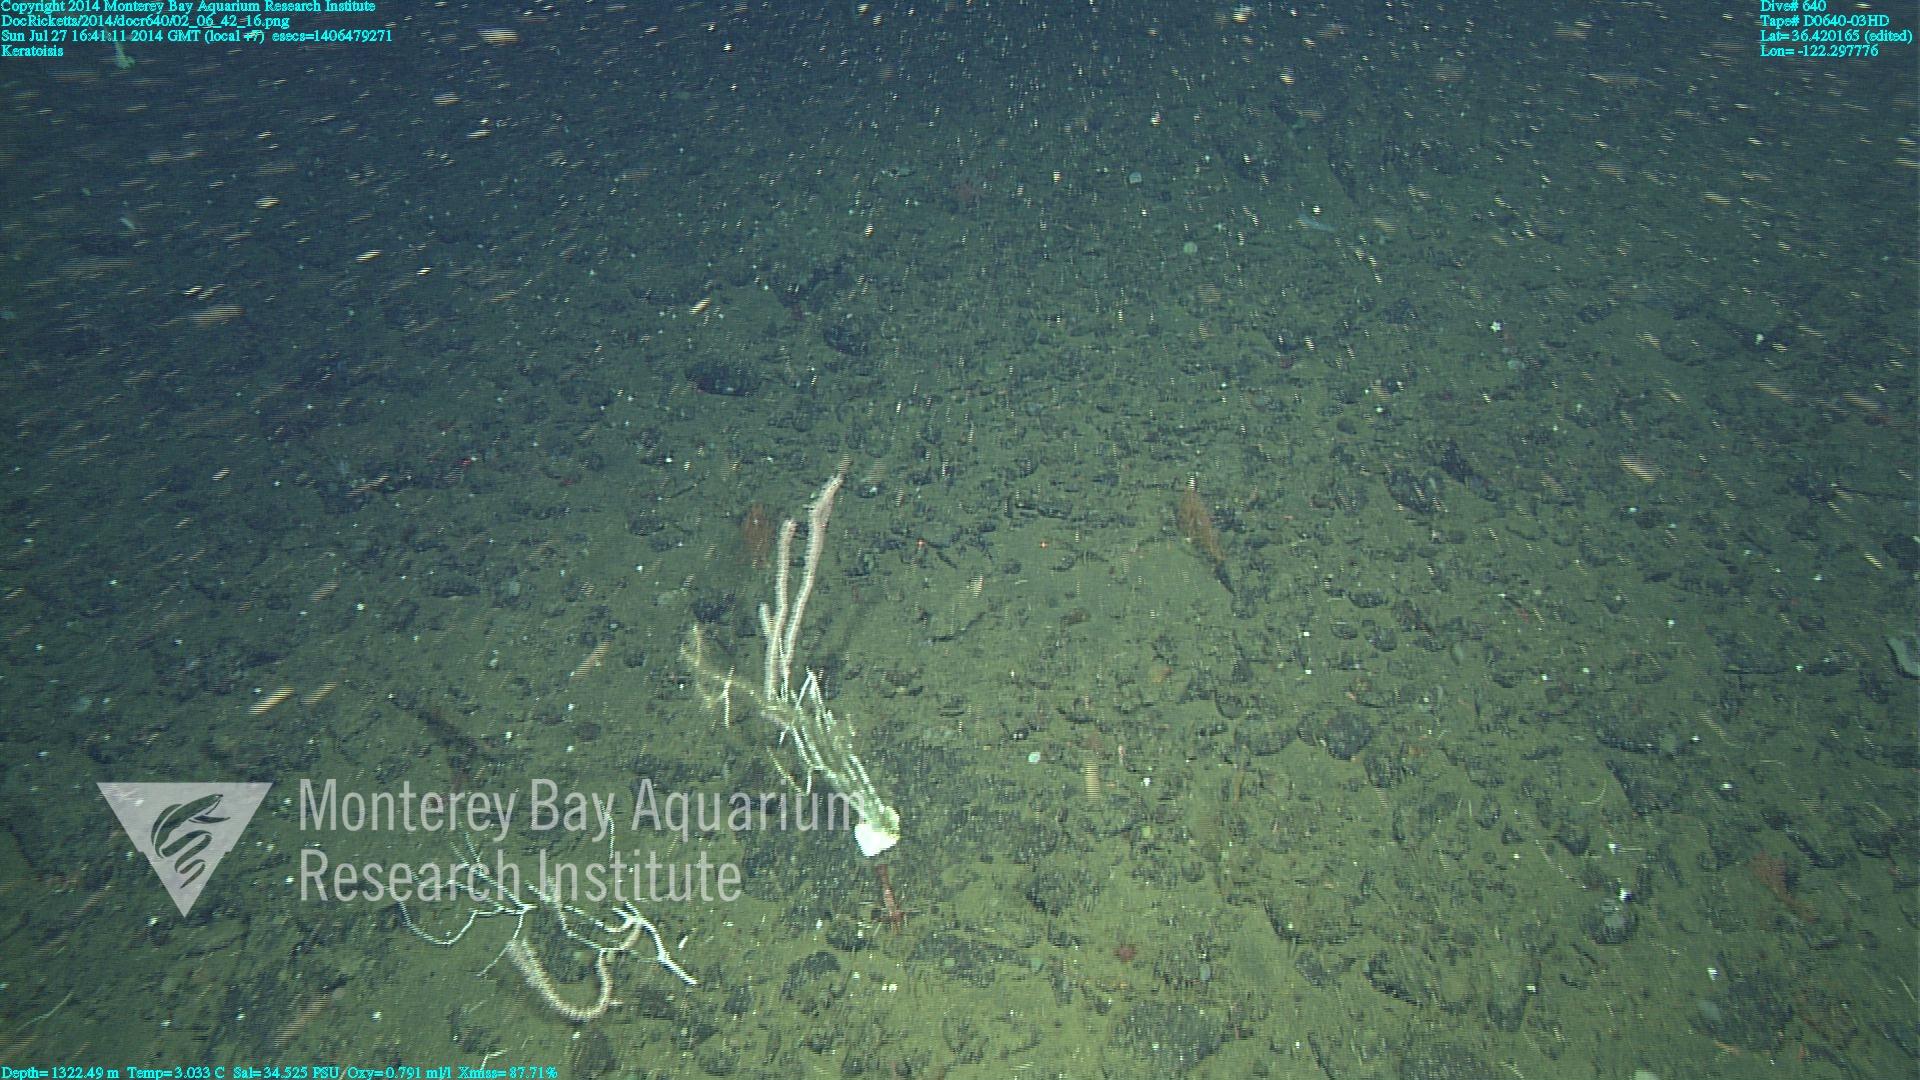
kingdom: Animalia
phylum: Cnidaria
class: Anthozoa
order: Scleralcyonacea
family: Keratoisididae
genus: Keratoisis
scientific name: Keratoisis
